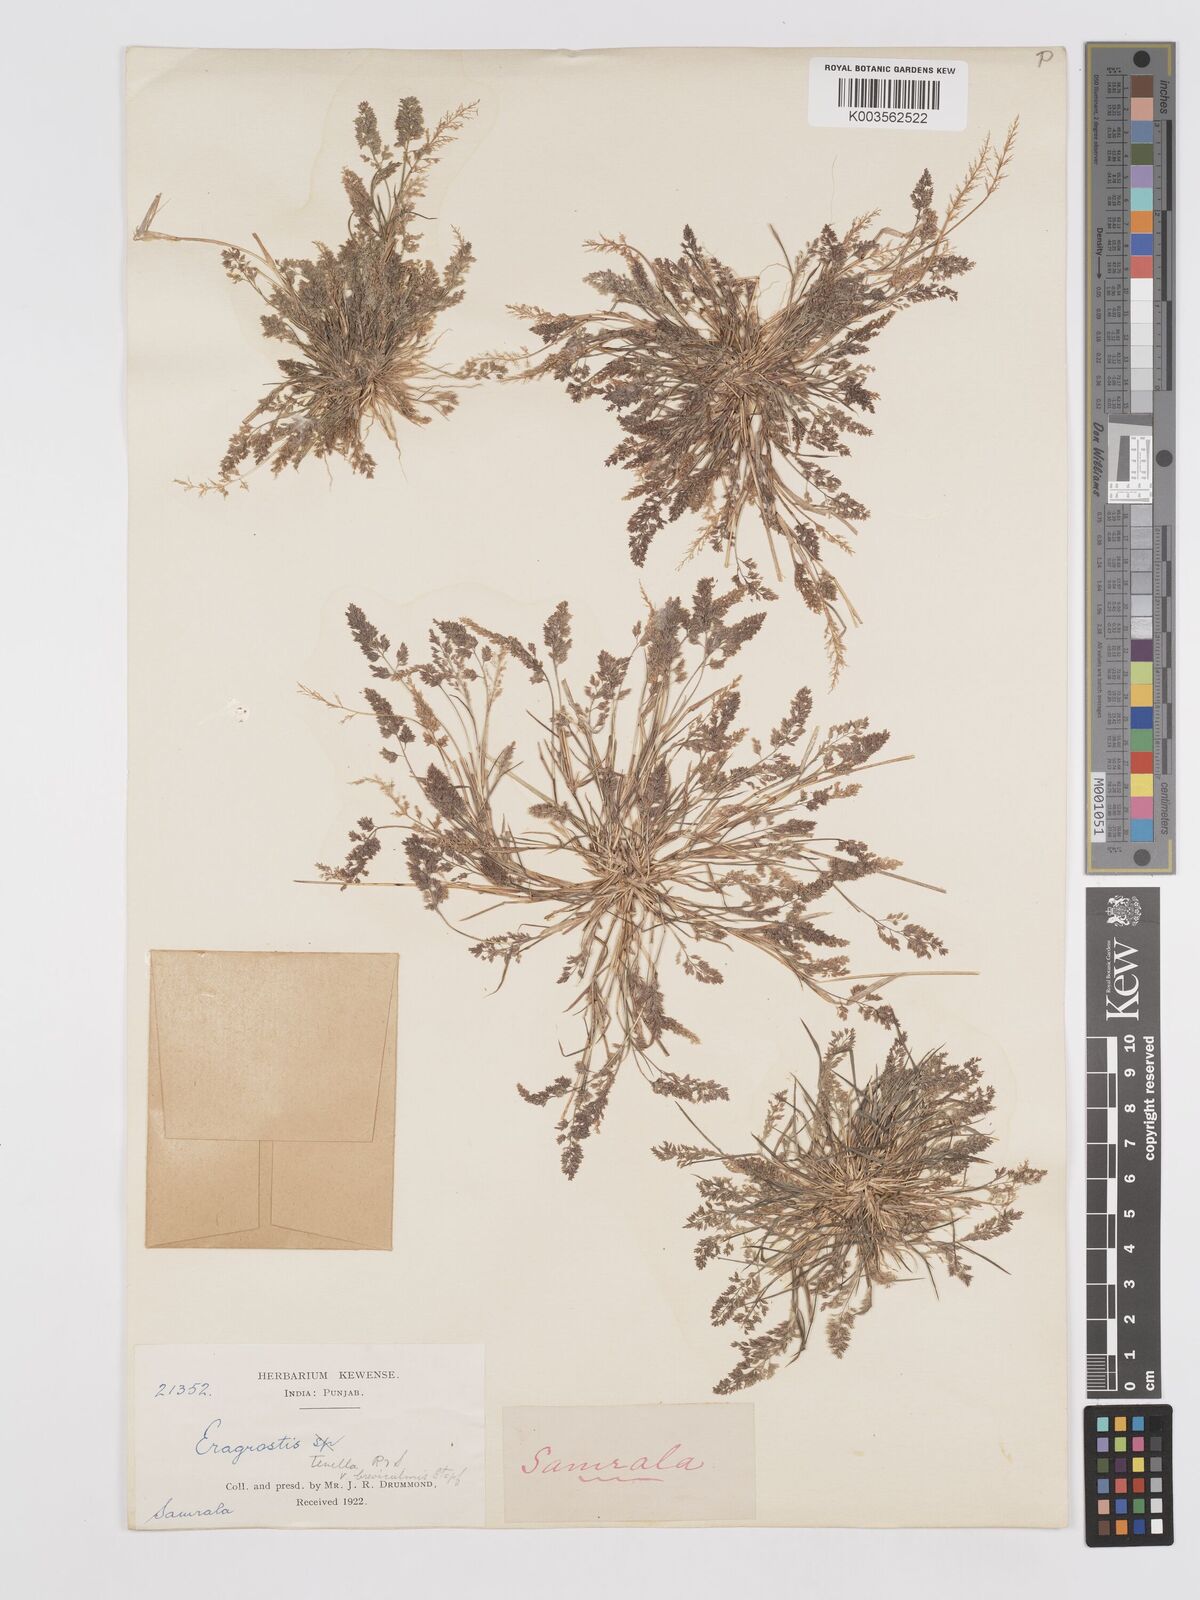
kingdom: Plantae
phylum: Tracheophyta
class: Liliopsida
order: Poales
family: Poaceae
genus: Eragrostis
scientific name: Eragrostis tenella
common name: Japanese lovegrass
